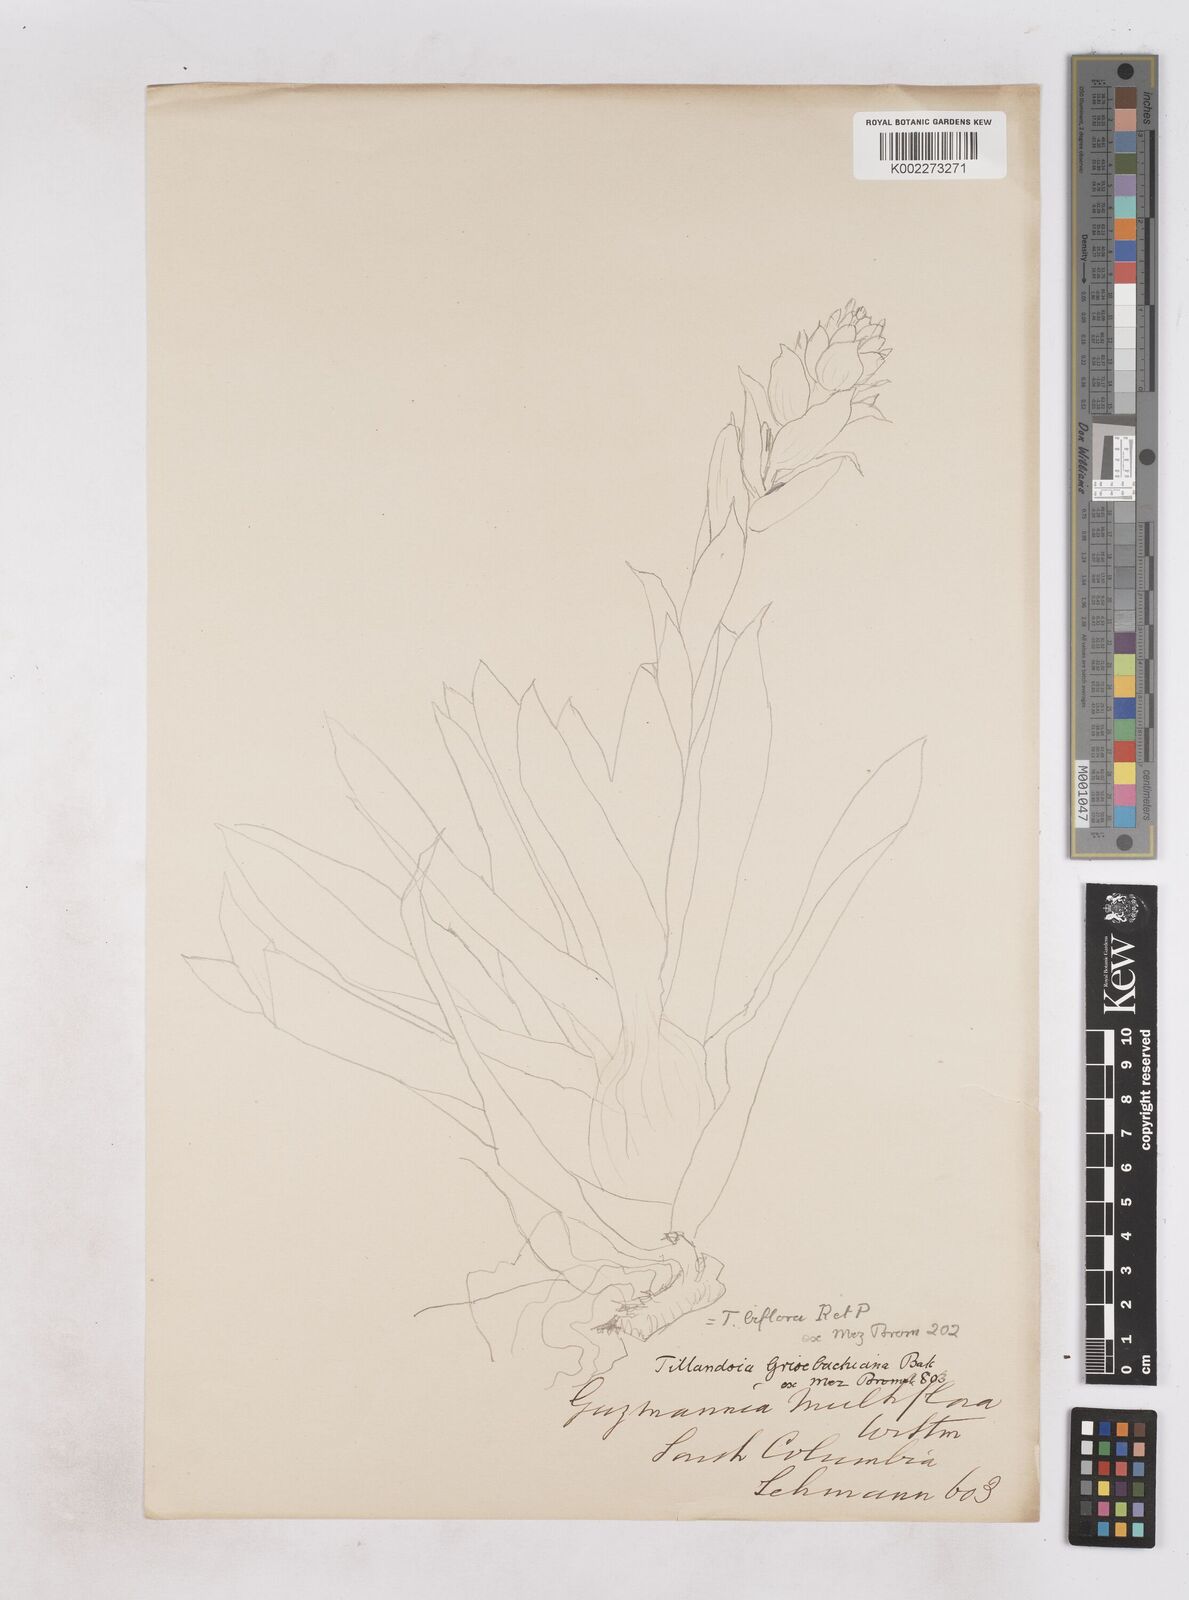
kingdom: Plantae
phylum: Tracheophyta
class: Liliopsida
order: Poales
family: Bromeliaceae
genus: Tillandsia
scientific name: Tillandsia biflora
